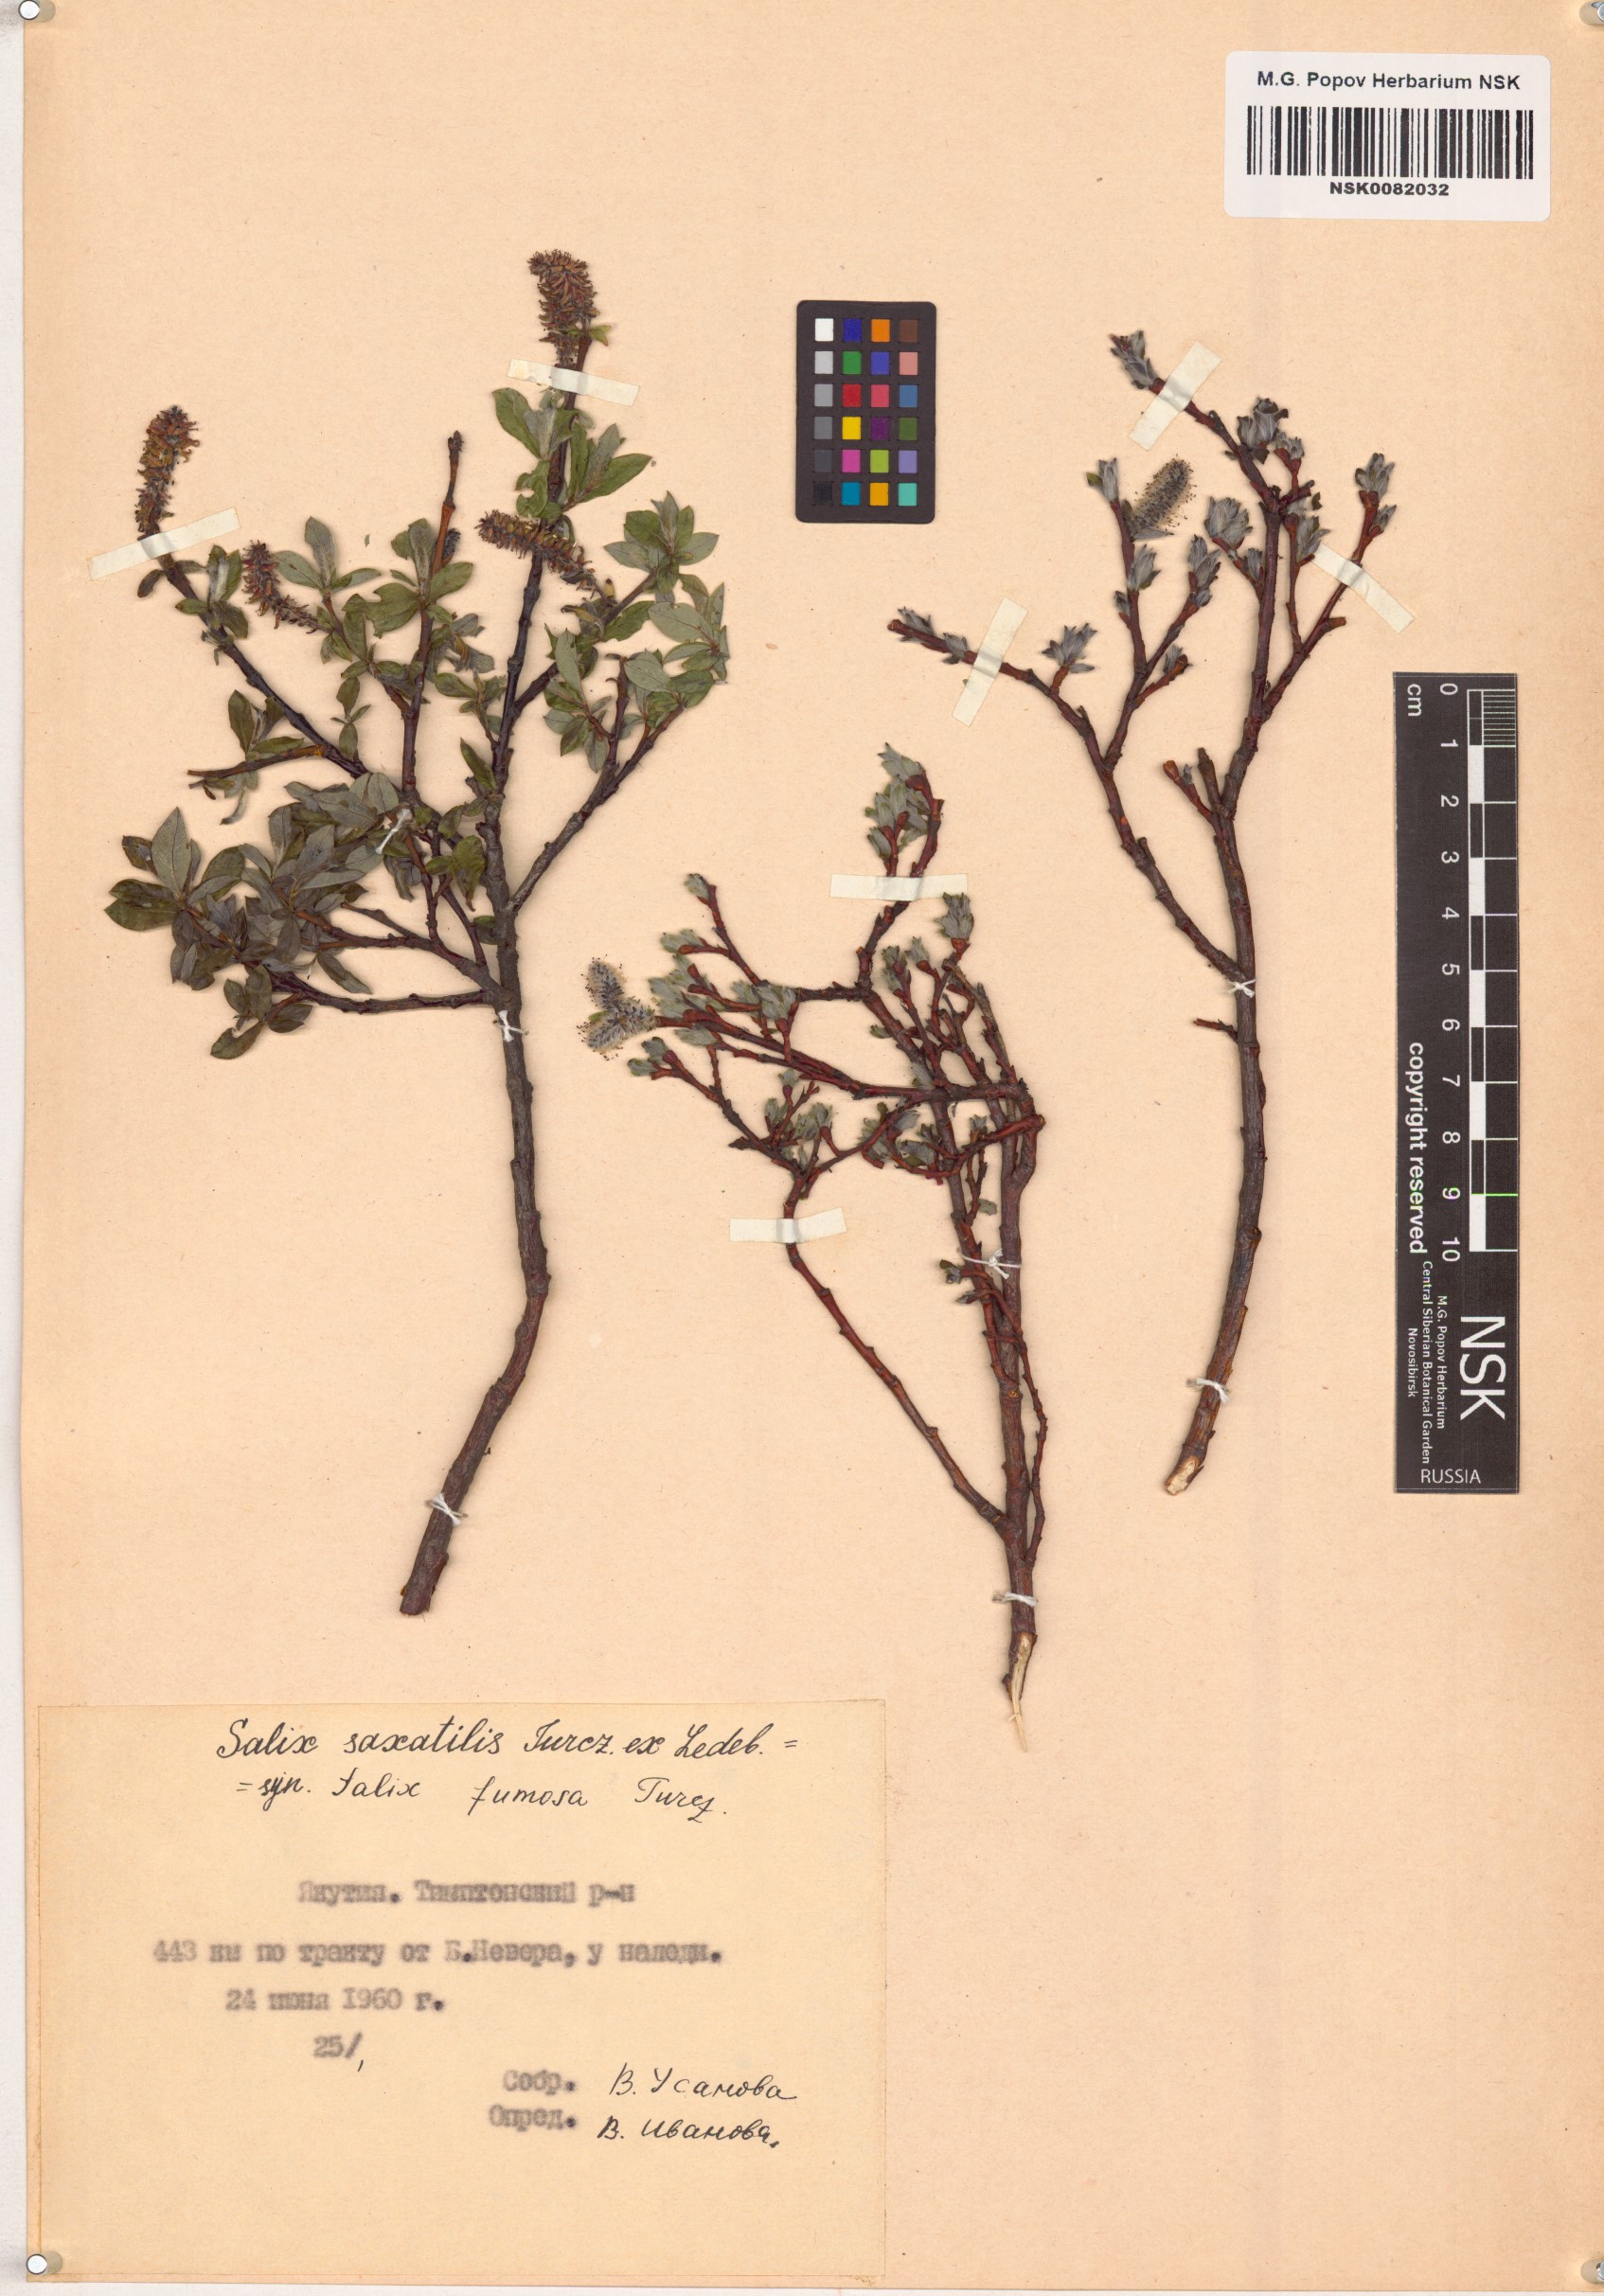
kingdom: Plantae
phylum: Tracheophyta
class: Magnoliopsida
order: Malpighiales
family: Salicaceae
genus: Salix
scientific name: Salix saxatilis
